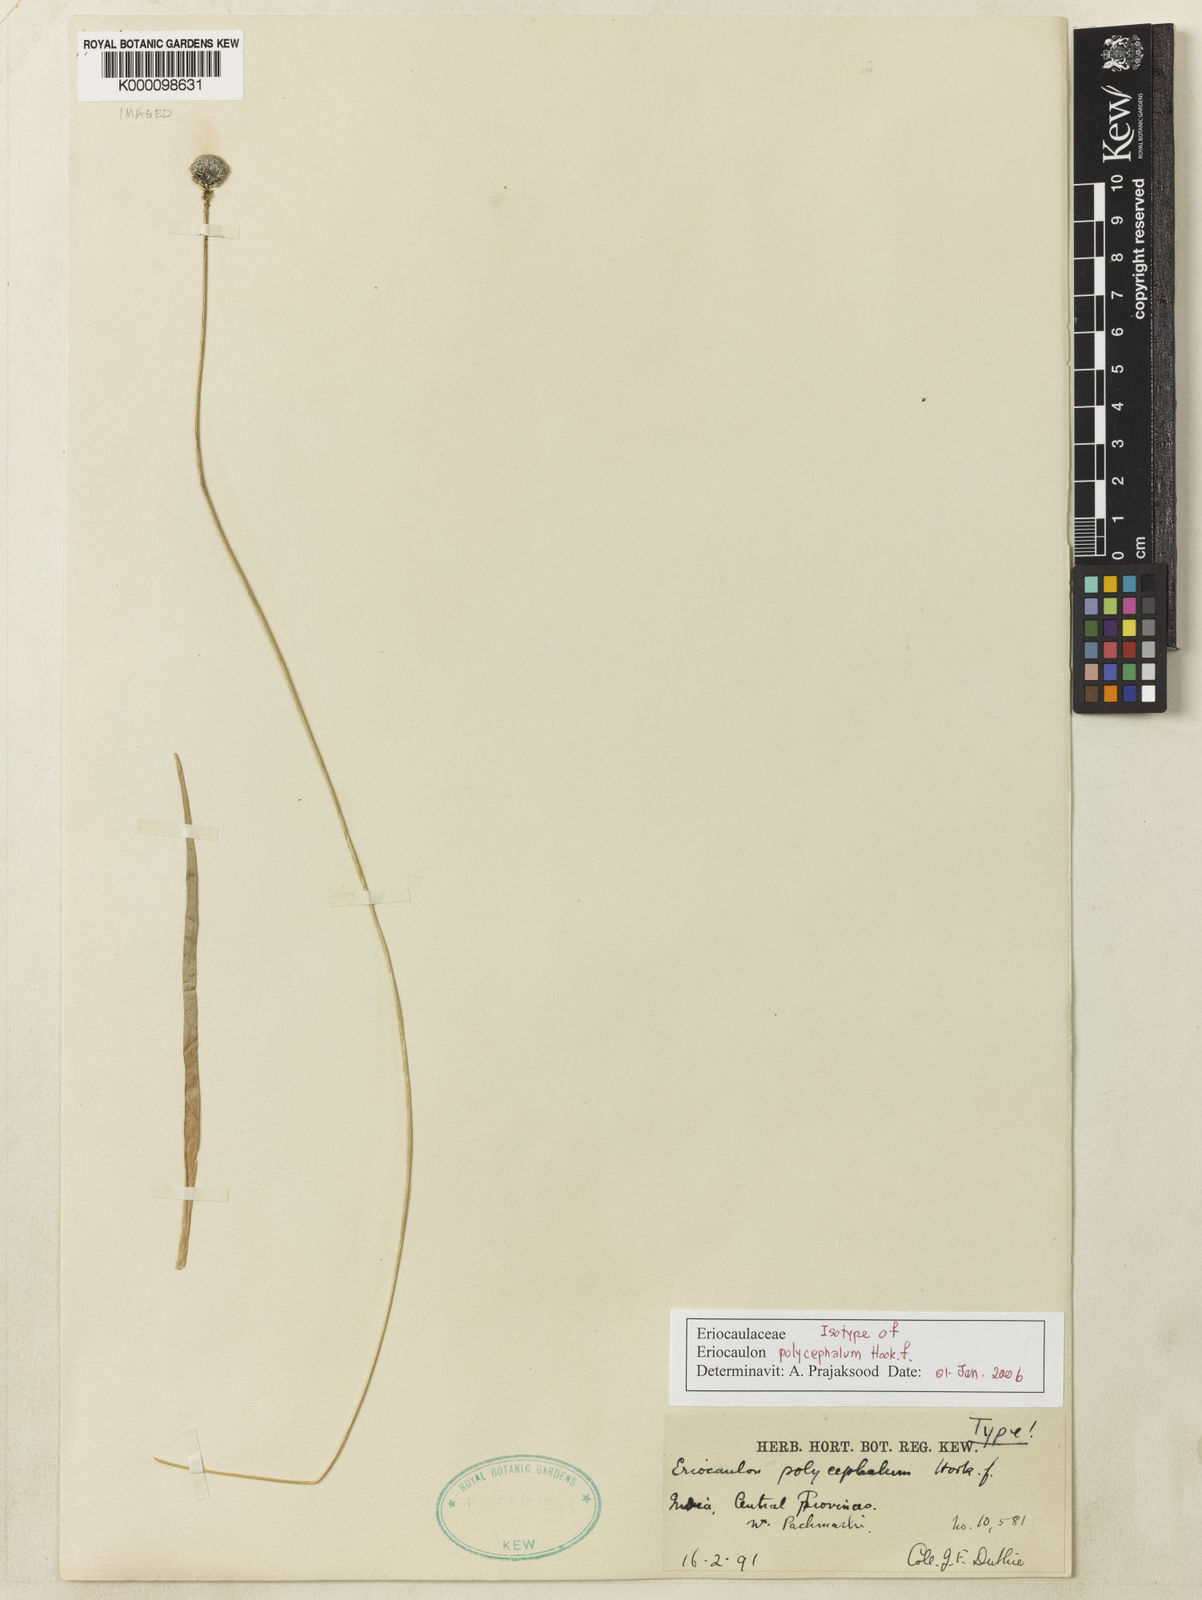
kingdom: Plantae
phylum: Tracheophyta
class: Liliopsida
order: Poales
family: Eriocaulaceae
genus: Eriocaulon
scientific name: Eriocaulon longicuspe
